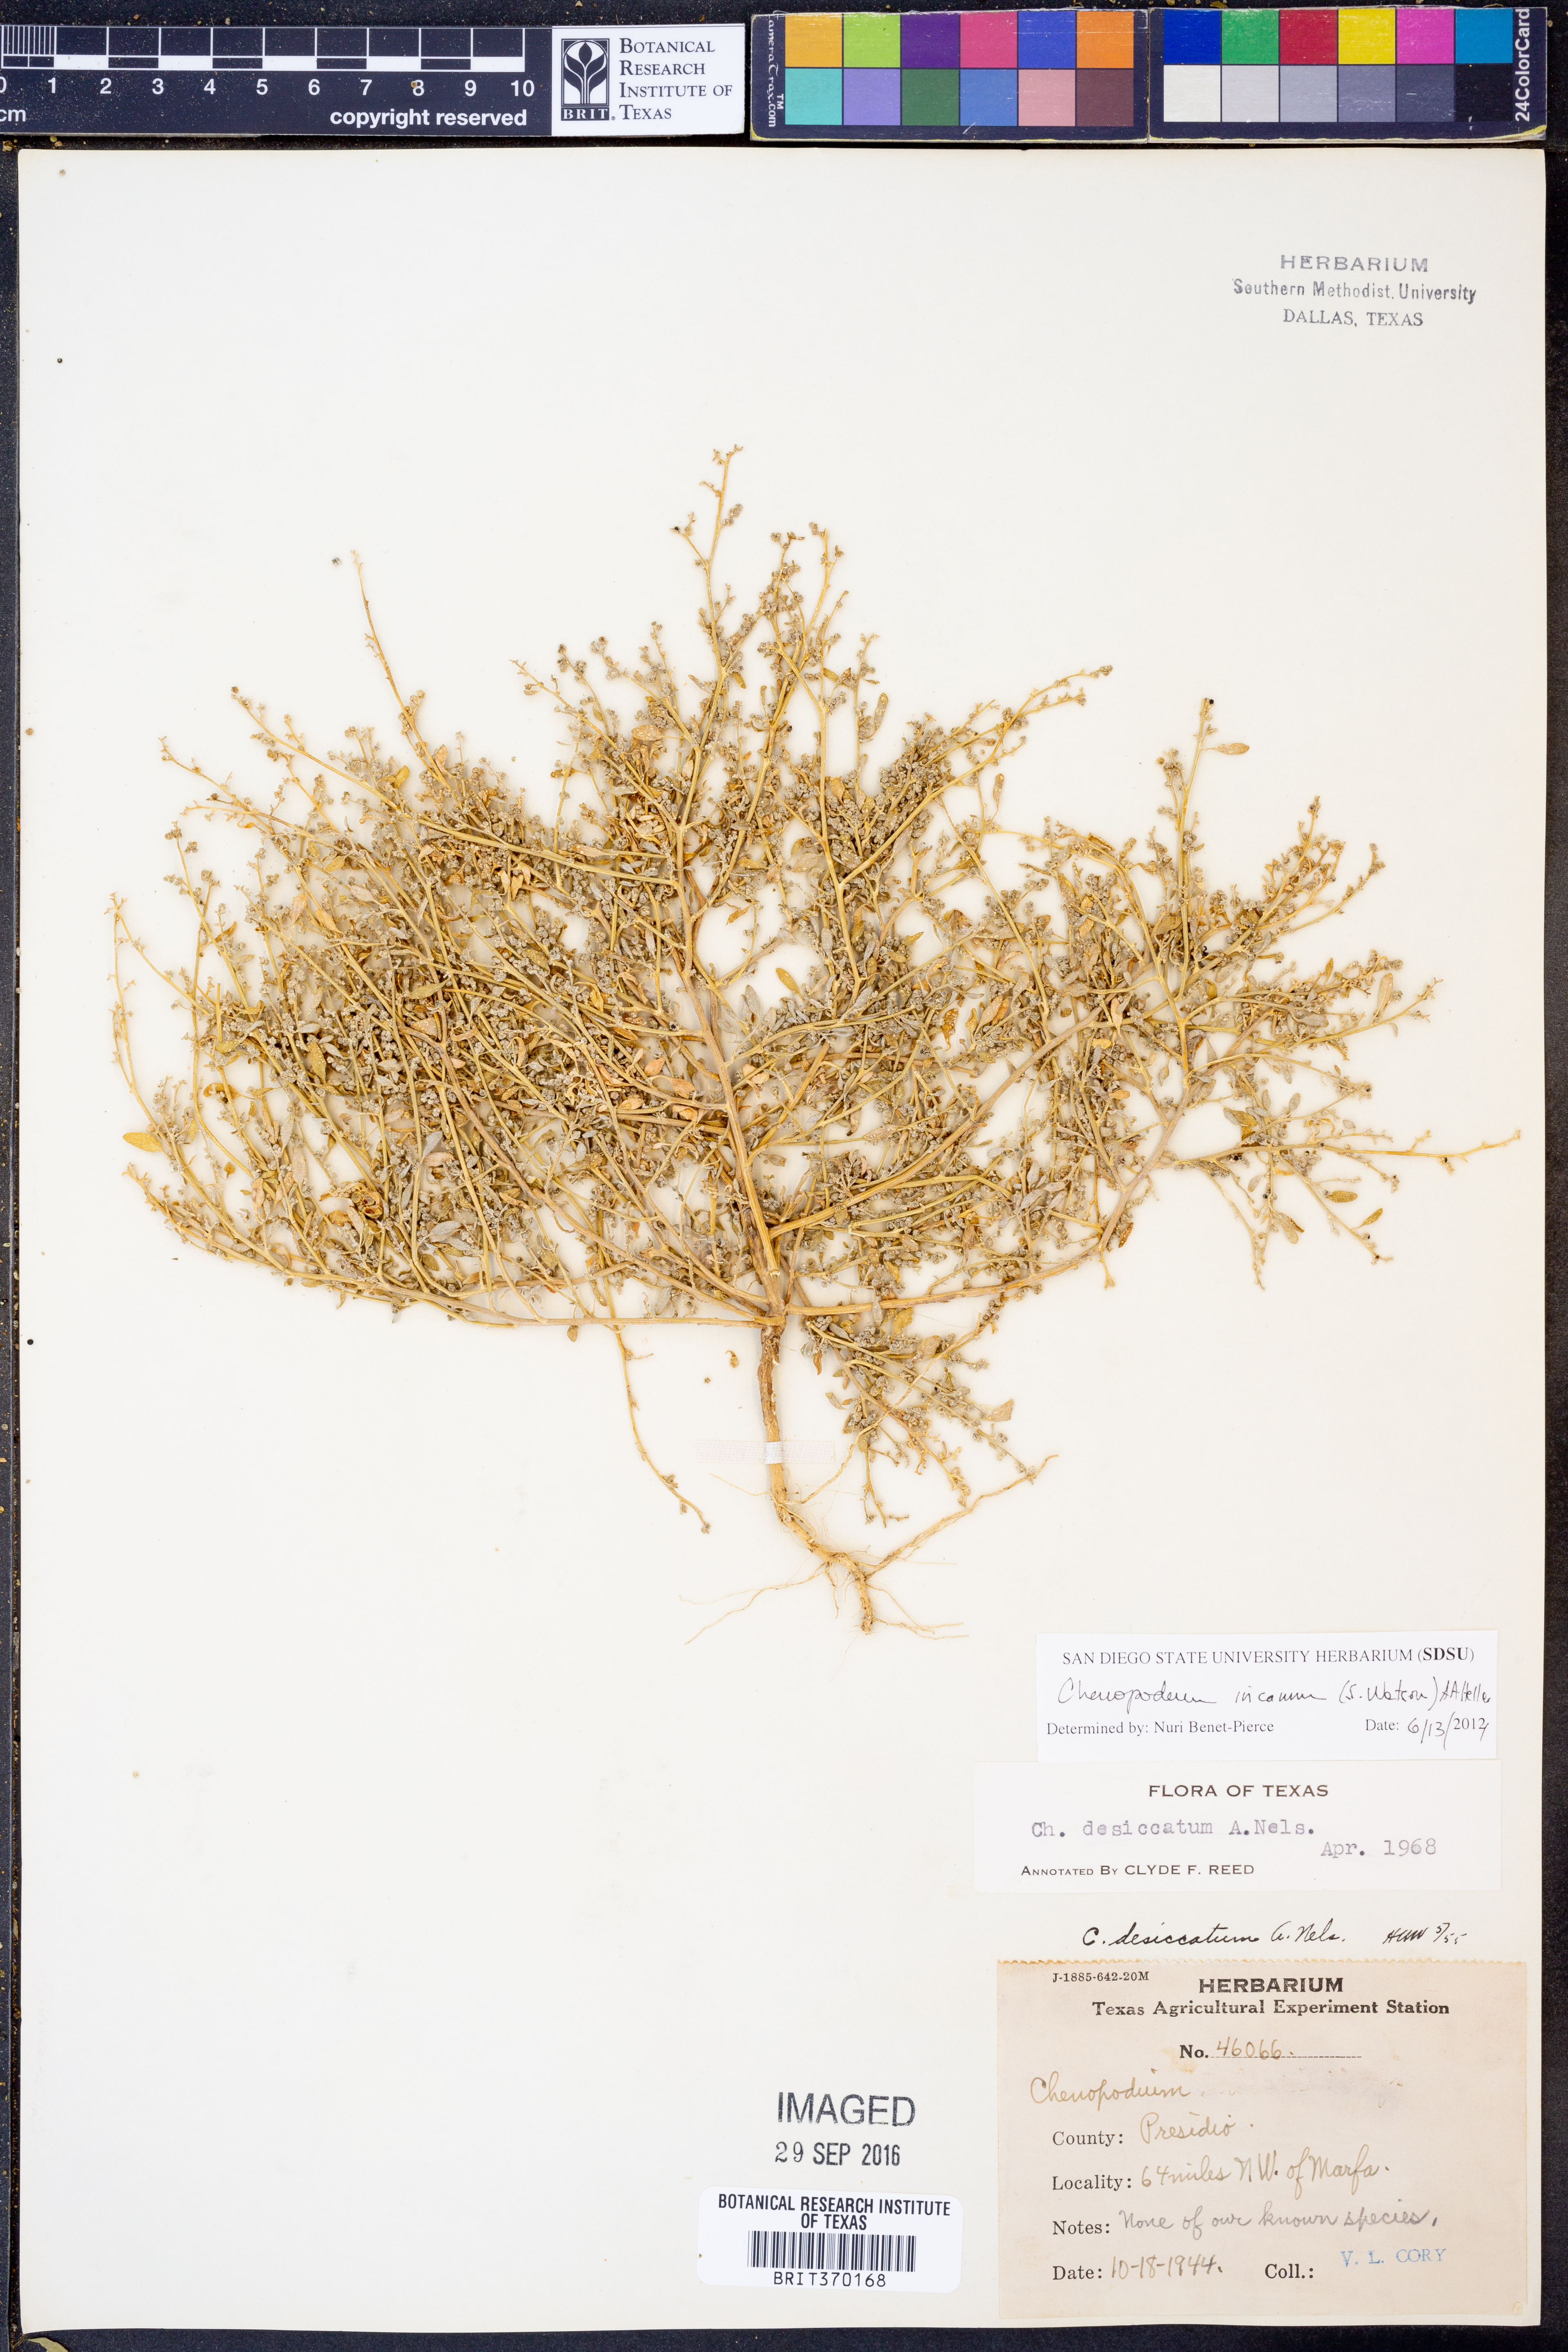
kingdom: Plantae
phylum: Tracheophyta
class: Magnoliopsida
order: Caryophyllales
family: Amaranthaceae
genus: Chenopodium
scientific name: Chenopodium incanum
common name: Hoary goosefoot
